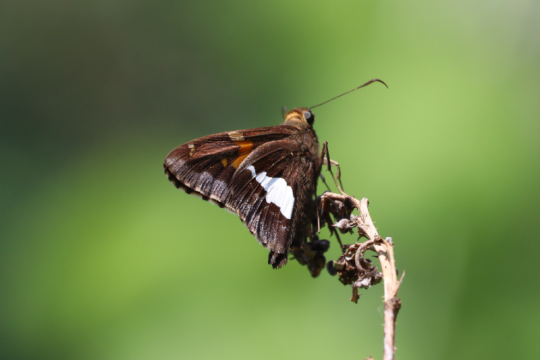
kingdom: Animalia
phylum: Arthropoda
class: Insecta
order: Lepidoptera
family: Hesperiidae
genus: Epargyreus
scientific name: Epargyreus clarus
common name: Silver-spotted Skipper
